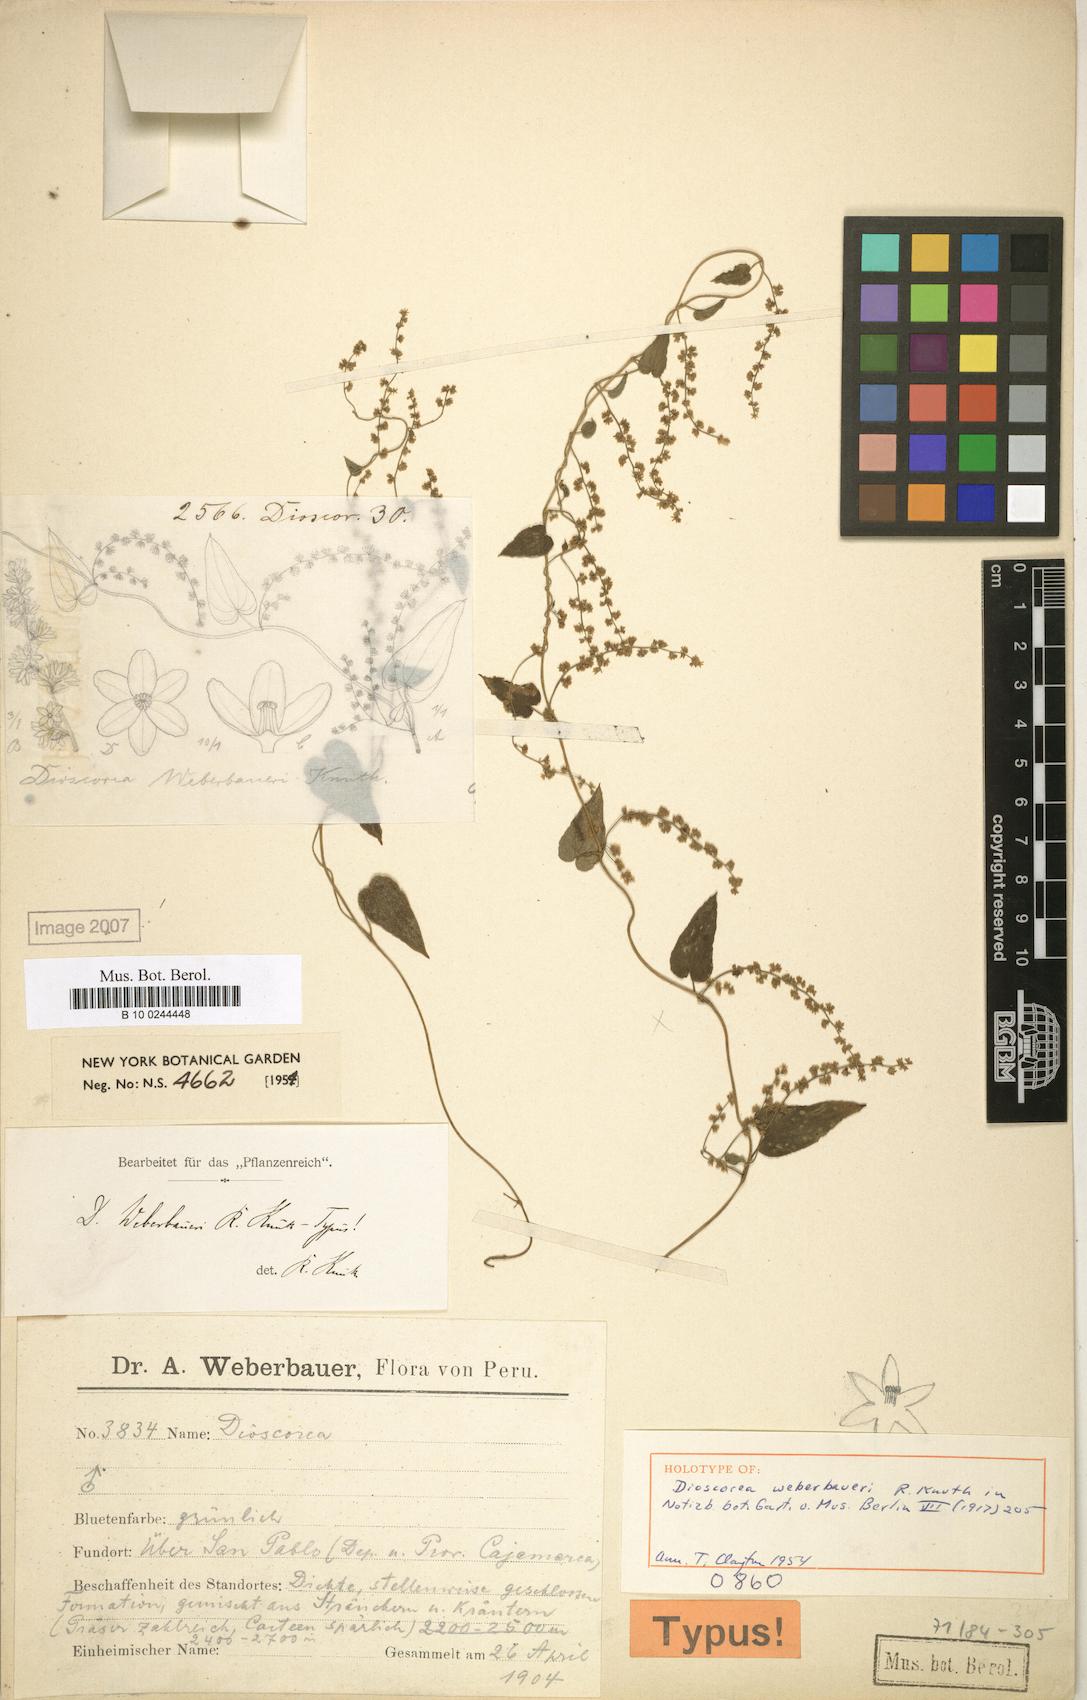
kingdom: Plantae
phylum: Tracheophyta
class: Liliopsida
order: Dioscoreales
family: Dioscoreaceae
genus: Dioscorea
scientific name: Dioscorea weberbaueri
